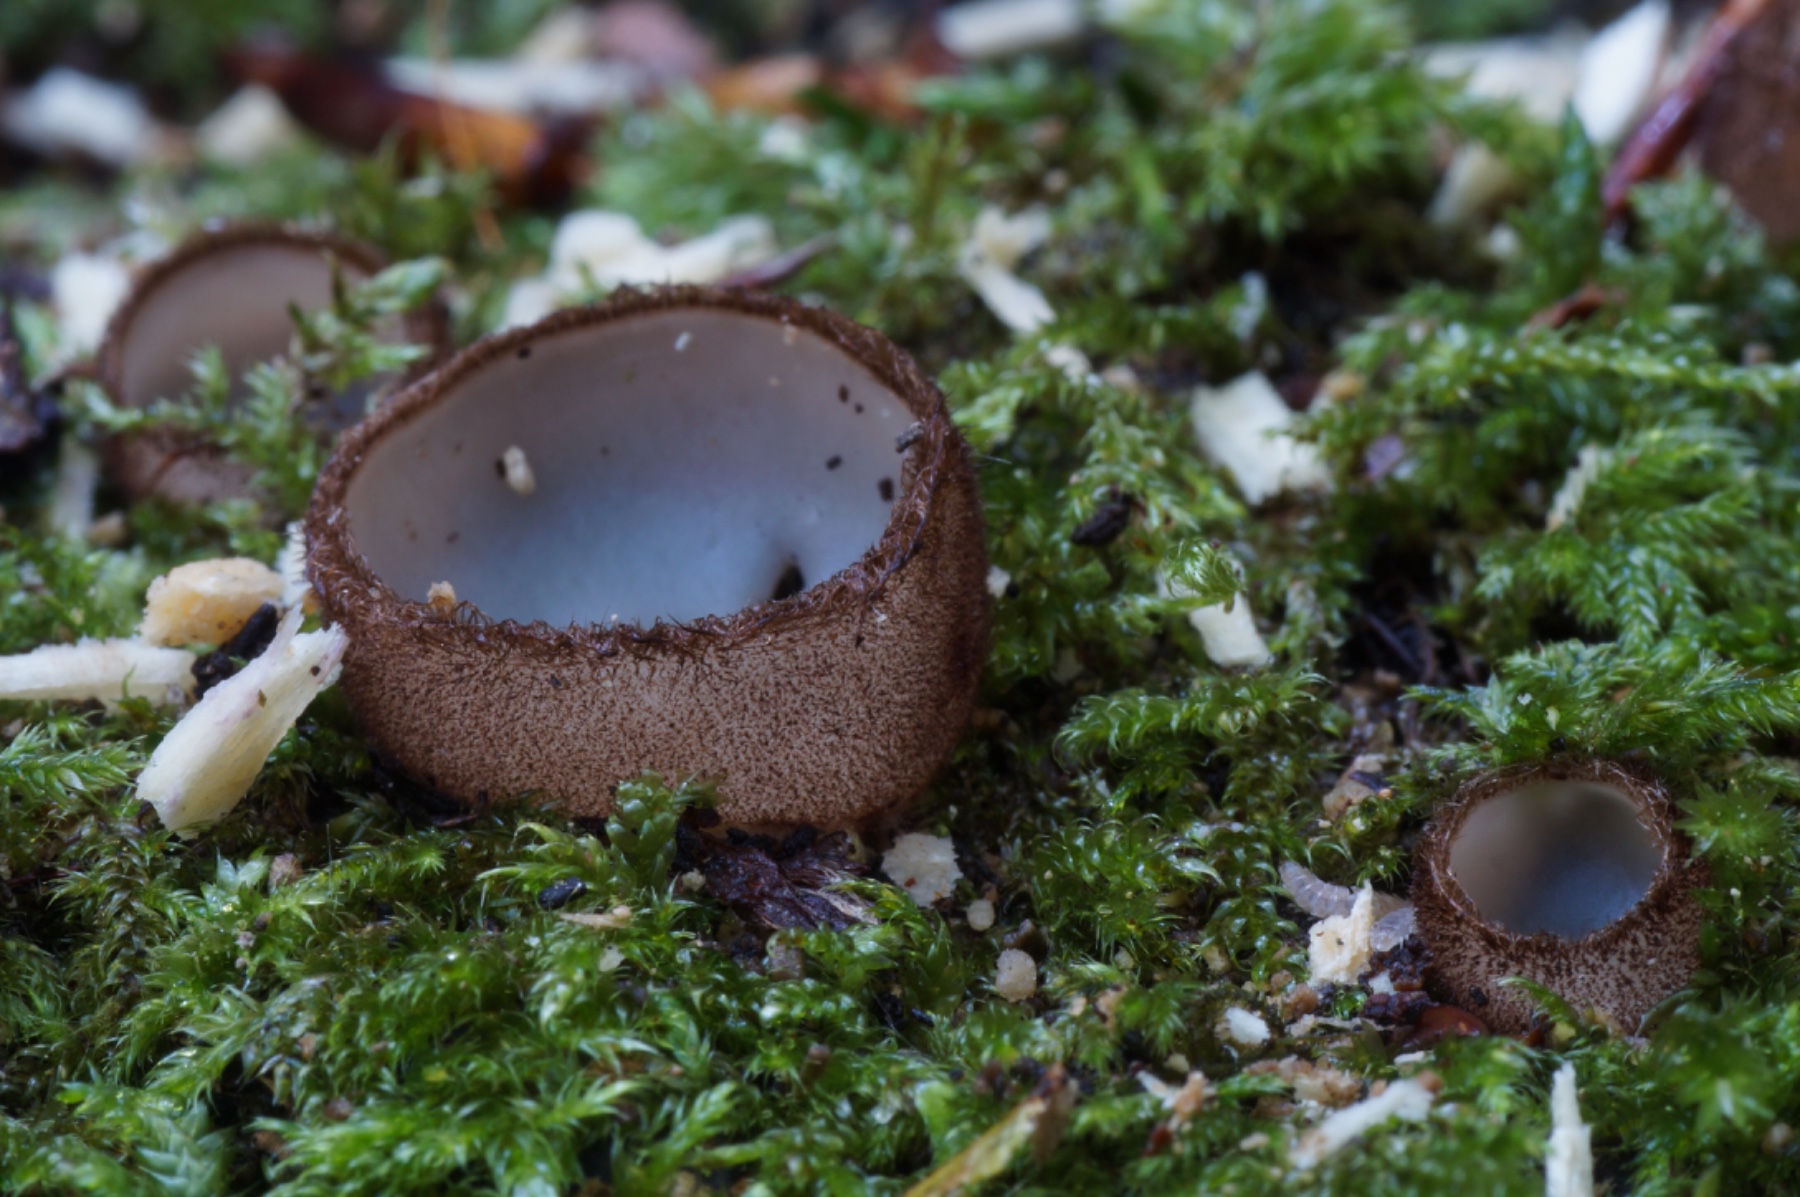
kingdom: Fungi
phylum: Ascomycota
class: Pezizomycetes
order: Pezizales
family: Pyronemataceae
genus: Humaria
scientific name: Humaria hemisphaerica
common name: halvkugleformet børstebæger
